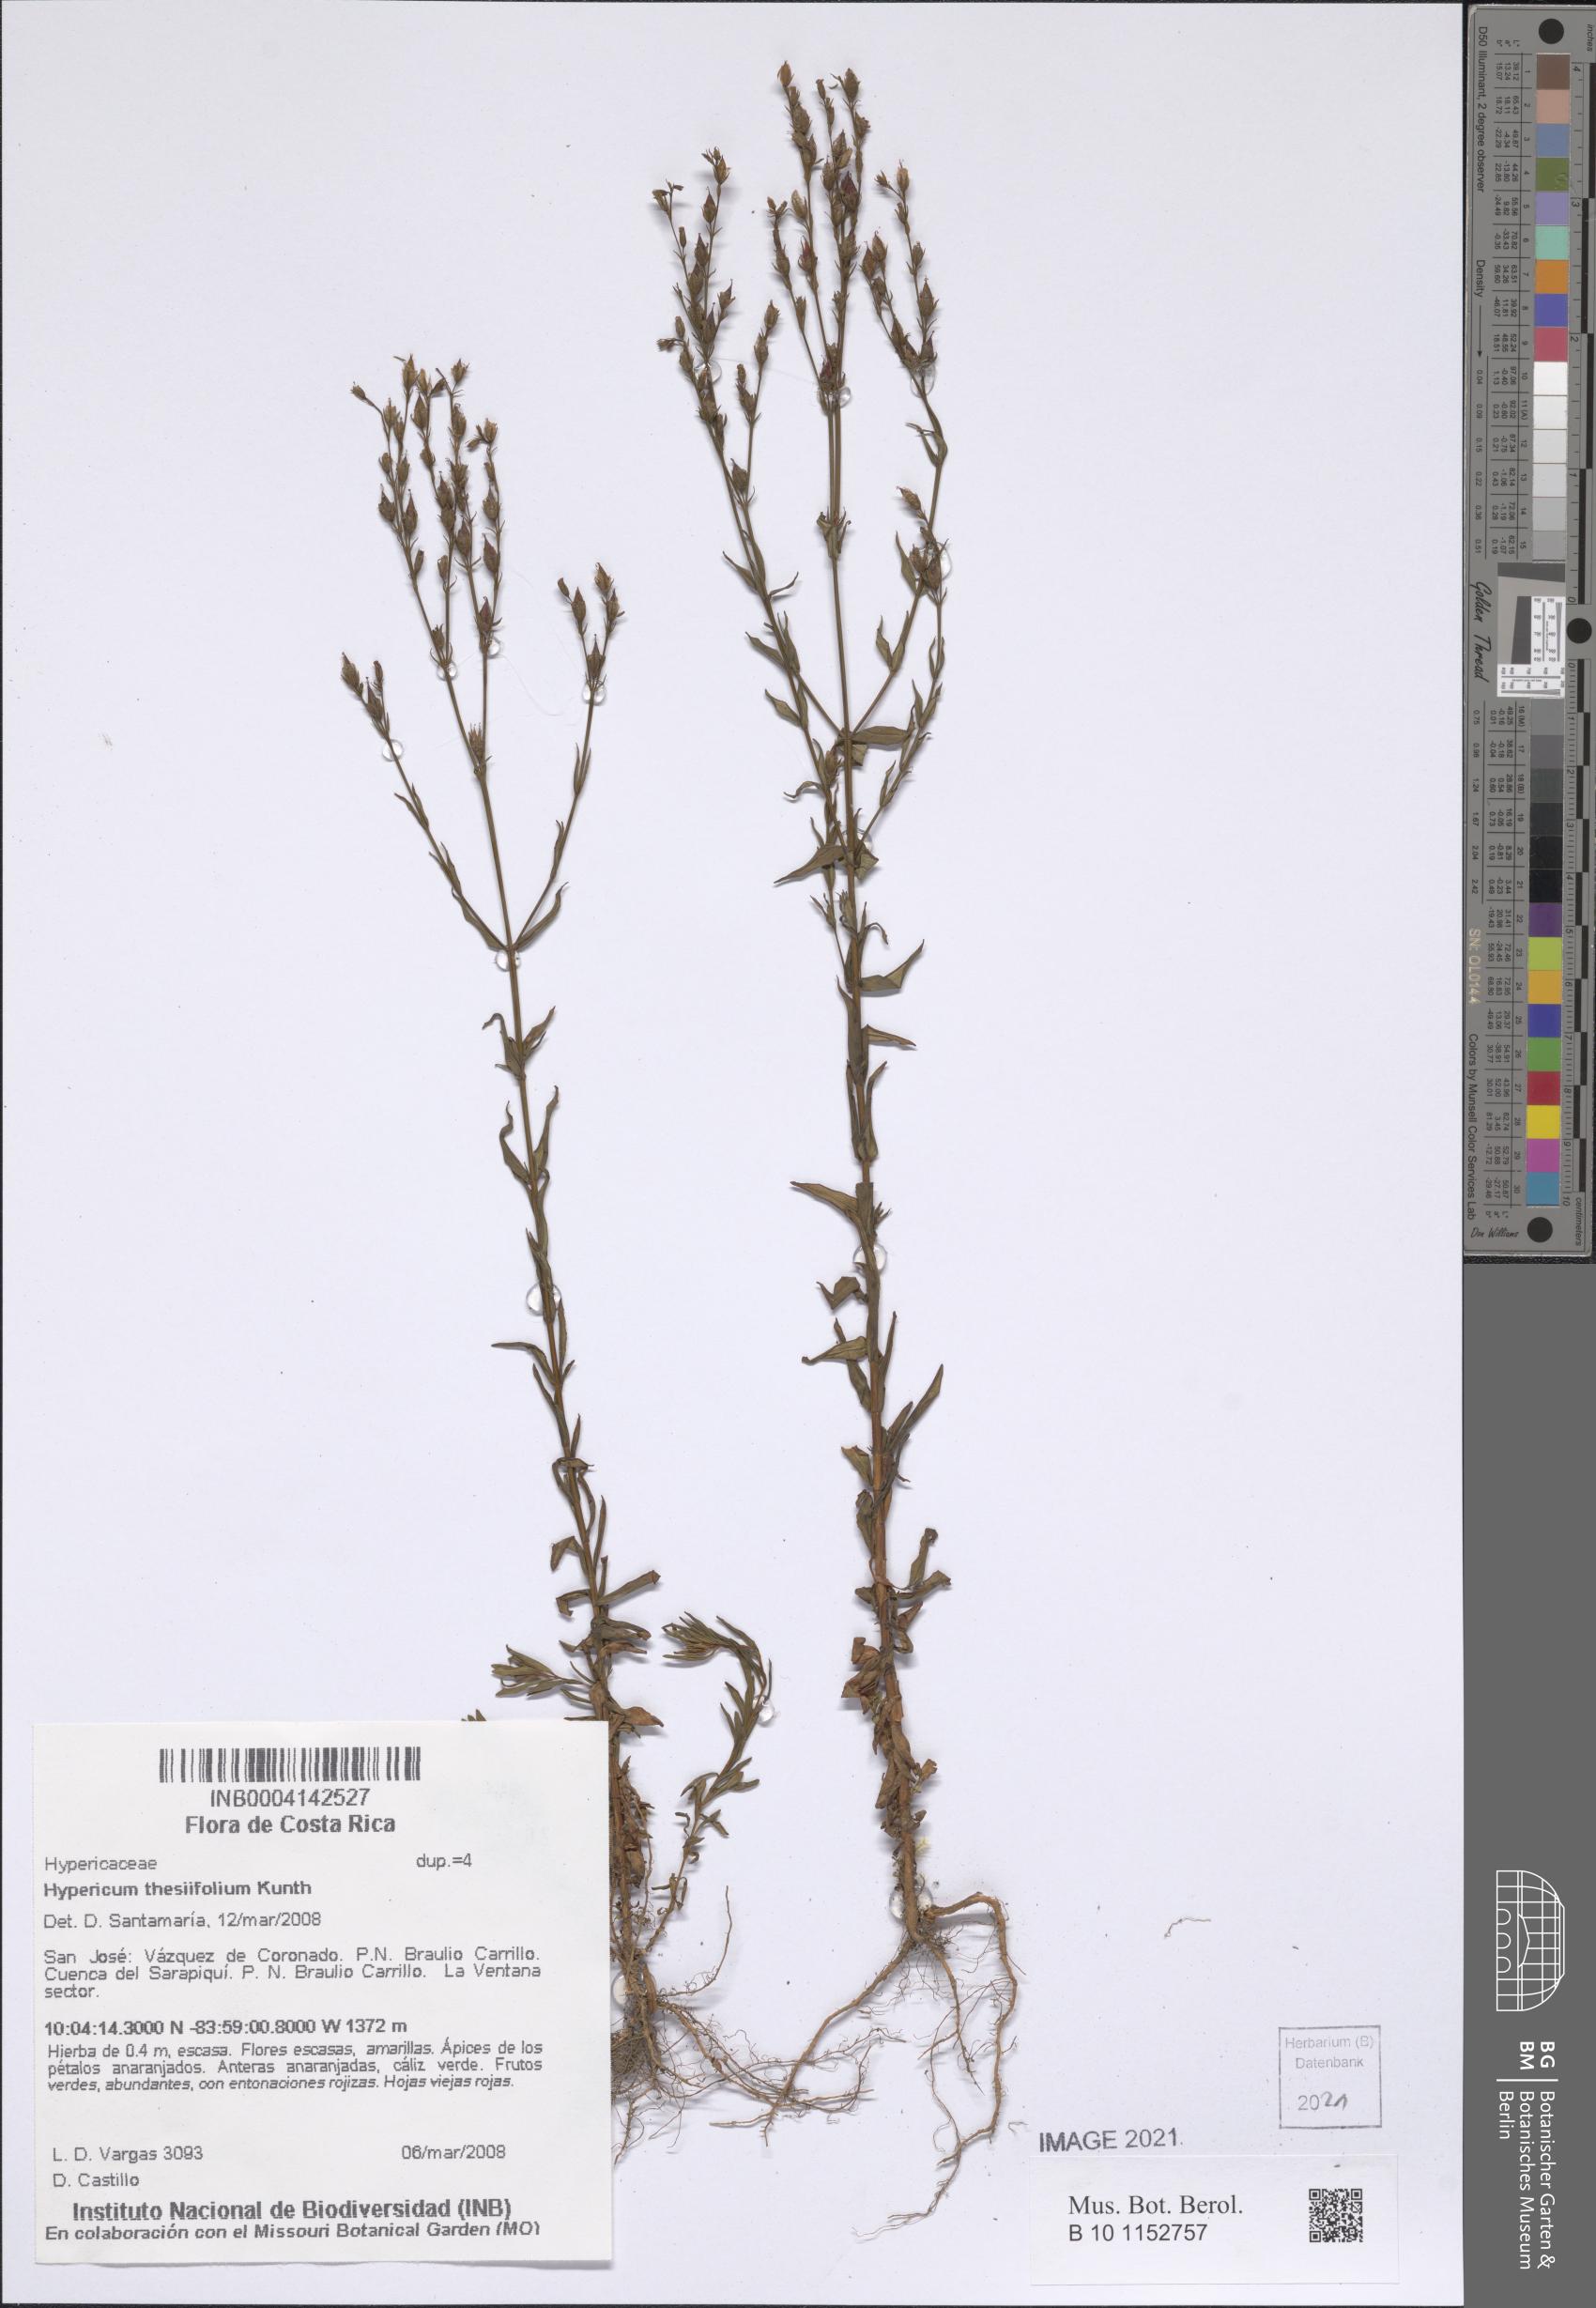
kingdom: Plantae
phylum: Tracheophyta
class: Magnoliopsida
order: Malpighiales
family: Hypericaceae
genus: Hypericum
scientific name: Hypericum thesiifolium
